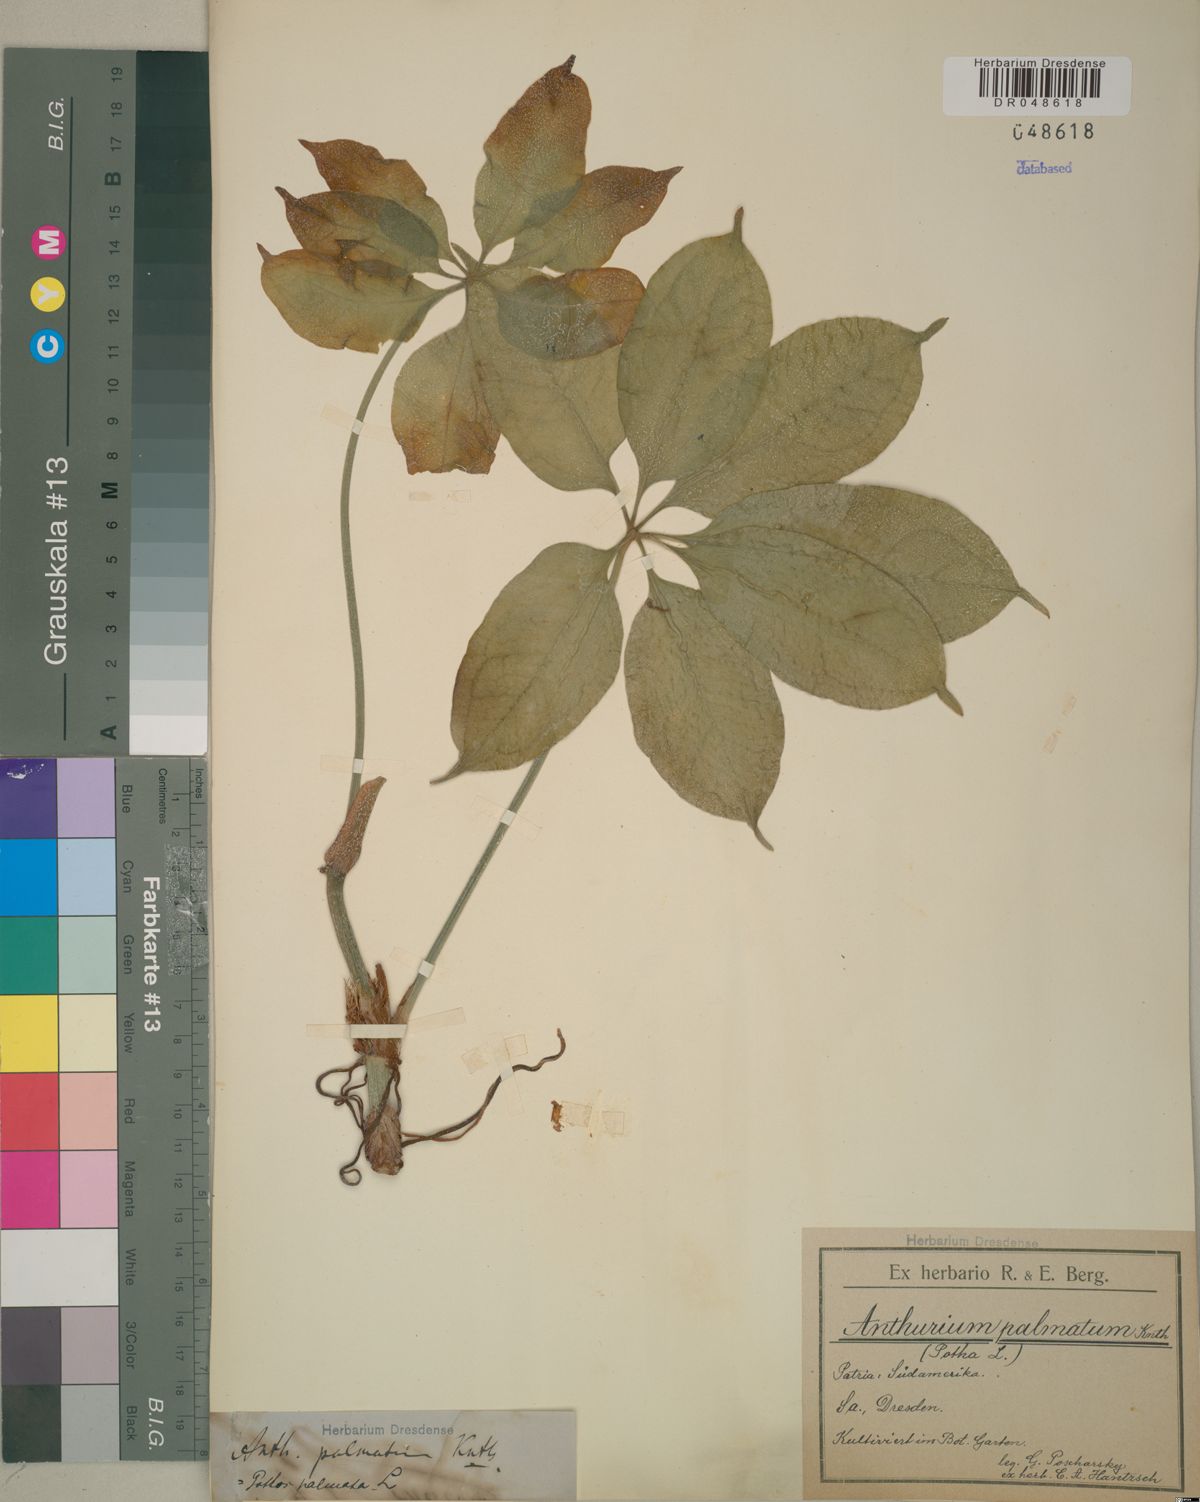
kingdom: Plantae
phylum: Tracheophyta
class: Liliopsida
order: Alismatales
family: Araceae
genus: Anthurium
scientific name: Anthurium palmatum
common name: Mibi
